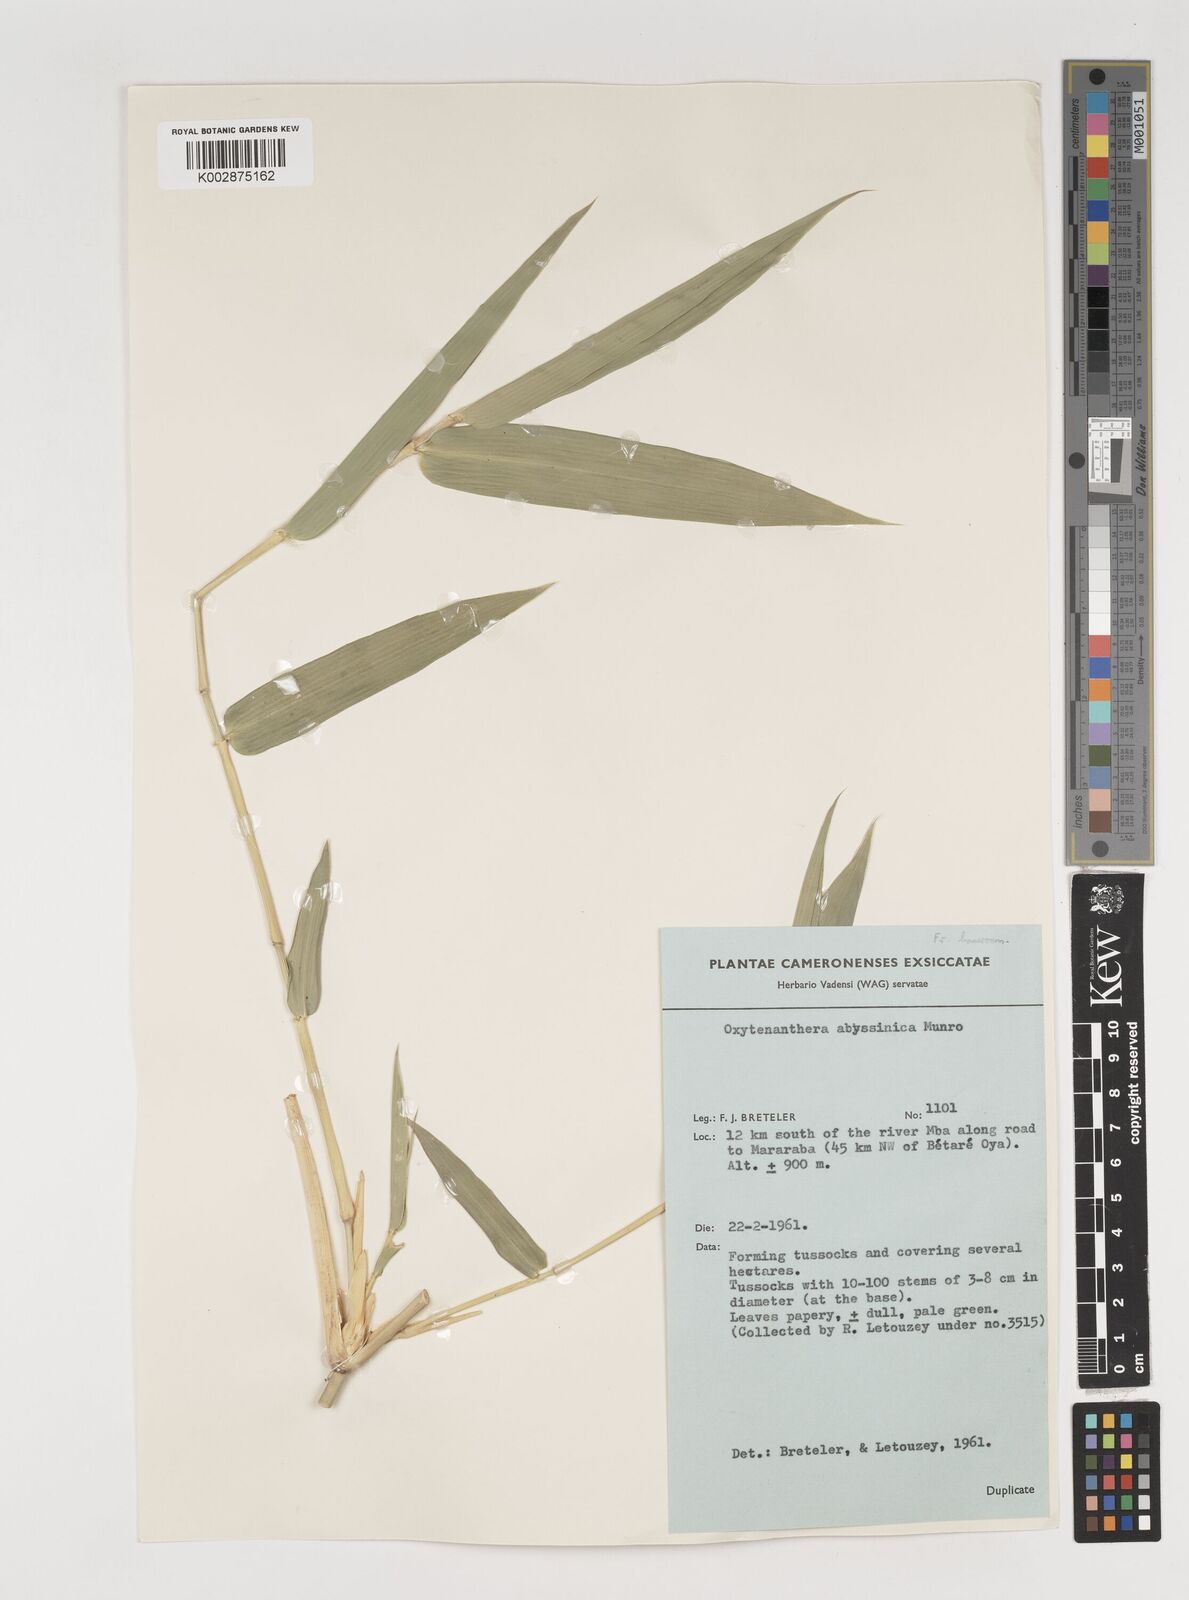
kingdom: Plantae
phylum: Tracheophyta
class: Liliopsida
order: Poales
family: Poaceae
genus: Oxytenanthera
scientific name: Oxytenanthera abyssinica
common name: Wine bamboo
